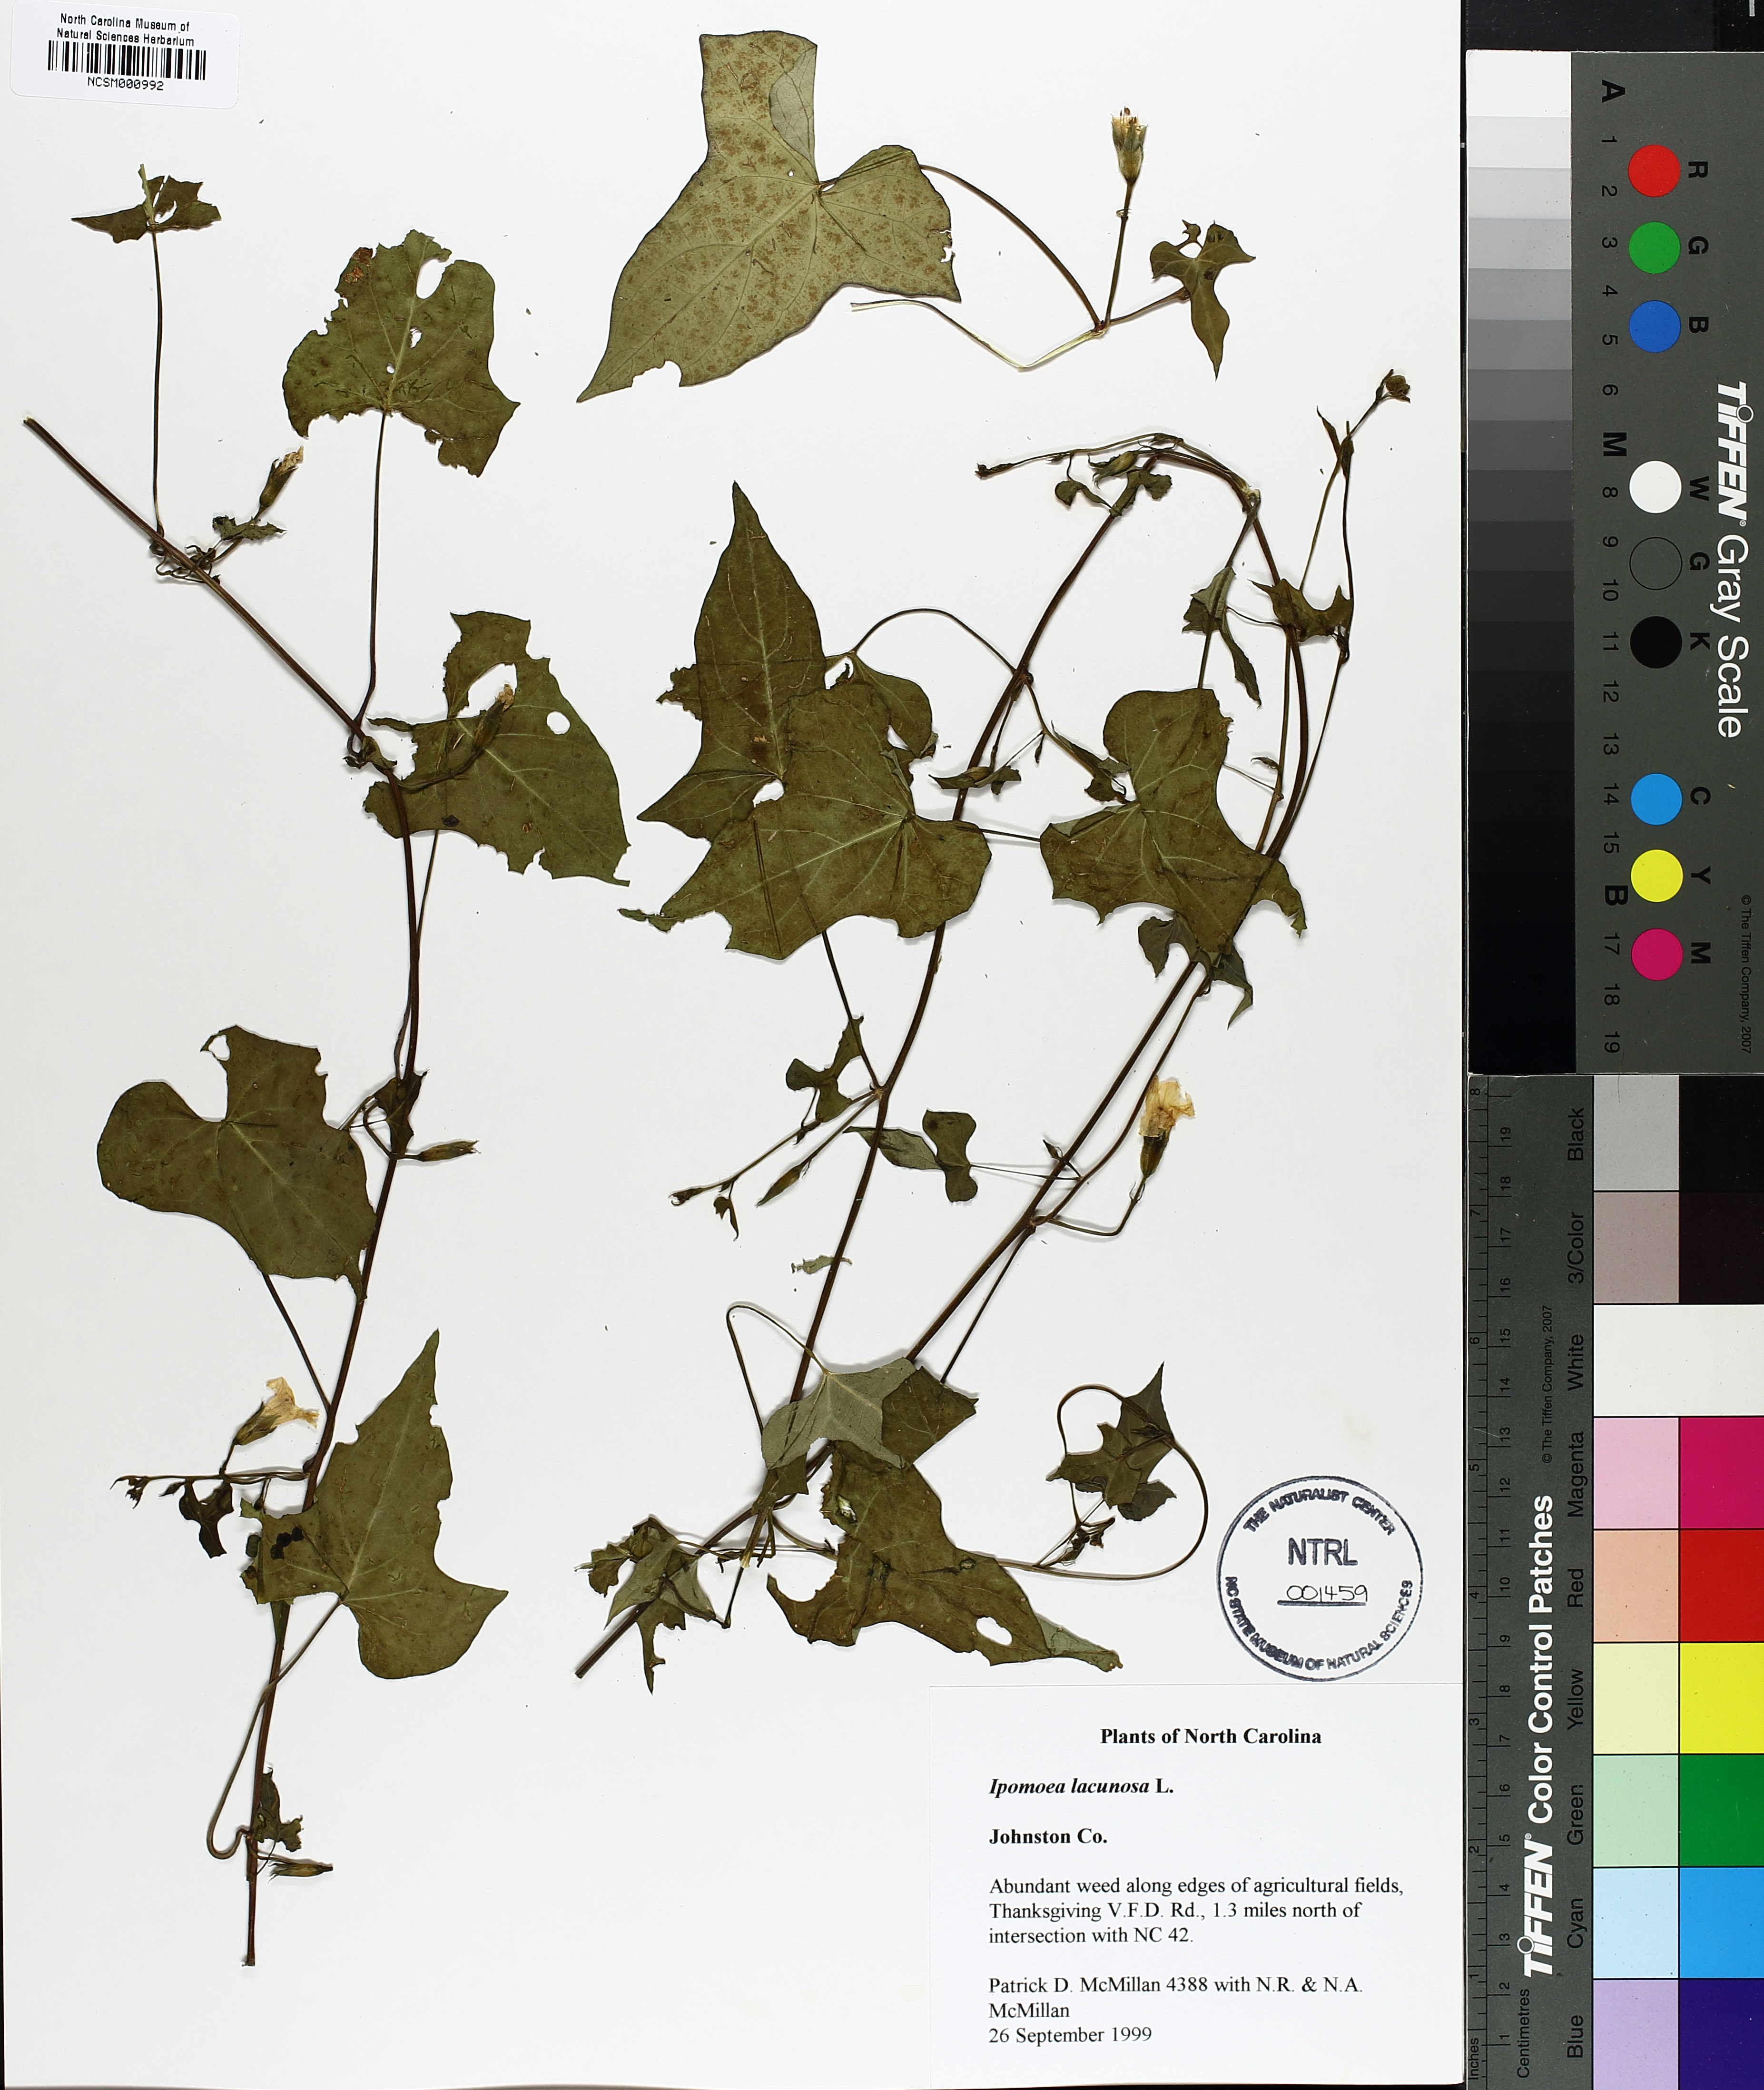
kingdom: Plantae
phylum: Tracheophyta
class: Magnoliopsida
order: Solanales
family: Convolvulaceae
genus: Ipomoea
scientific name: Ipomoea lacunosa
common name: White morning-glory
